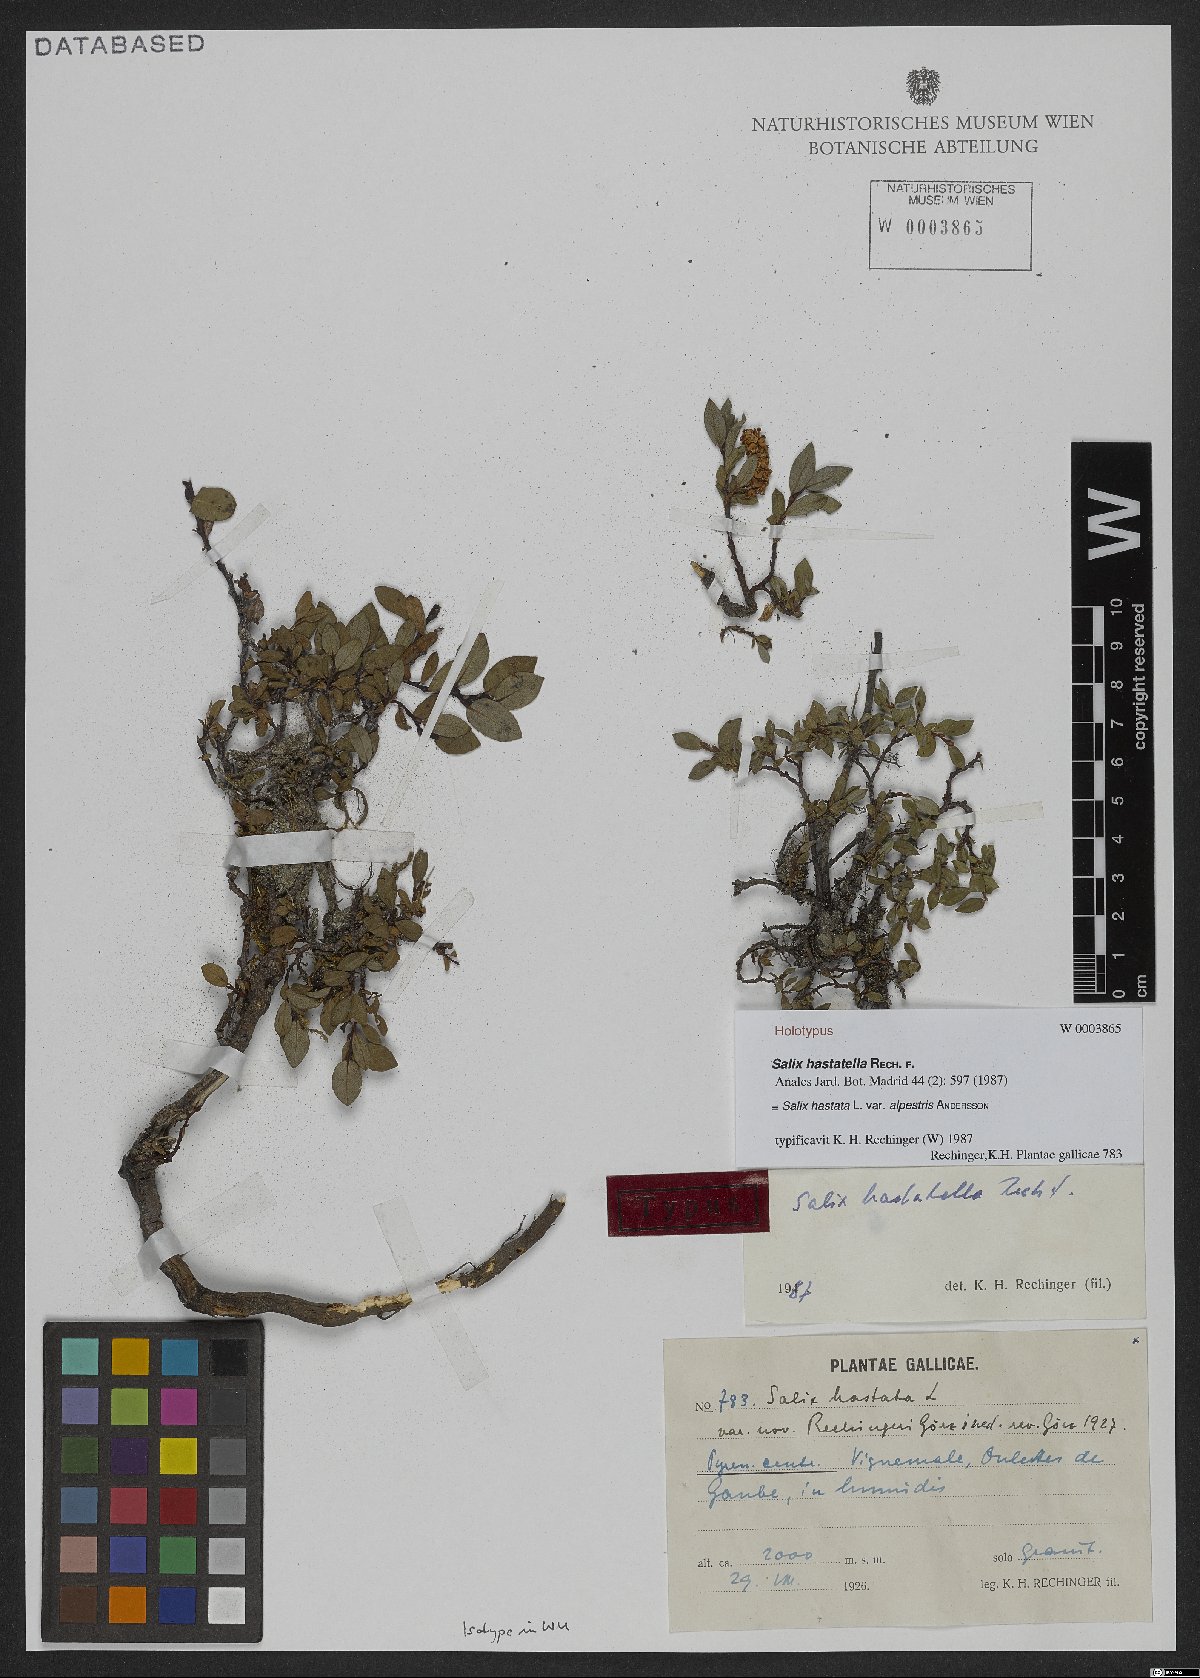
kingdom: Plantae
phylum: Tracheophyta
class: Magnoliopsida
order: Malpighiales
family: Salicaceae
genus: Salix
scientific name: Salix hastata
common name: Halberd willow
